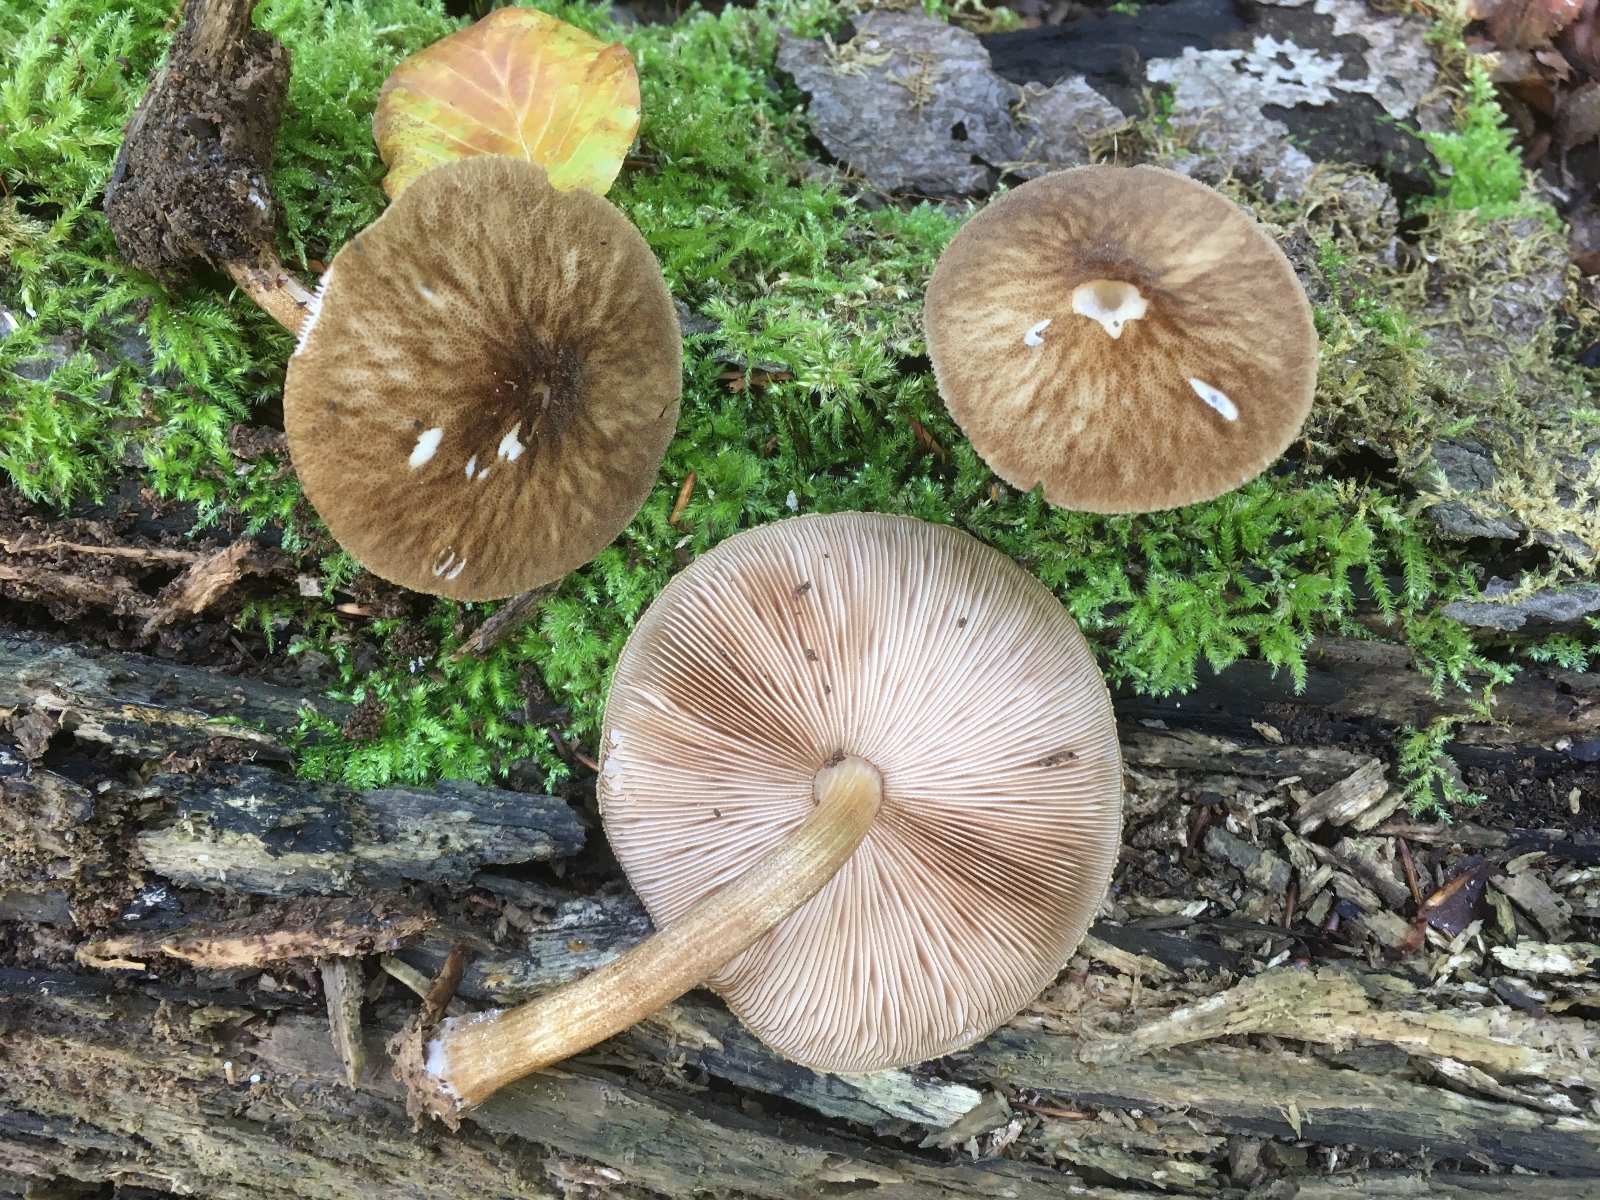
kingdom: Fungi
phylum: Basidiomycota
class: Agaricomycetes
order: Agaricales
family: Pluteaceae
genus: Pluteus
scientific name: Pluteus umbrosus
